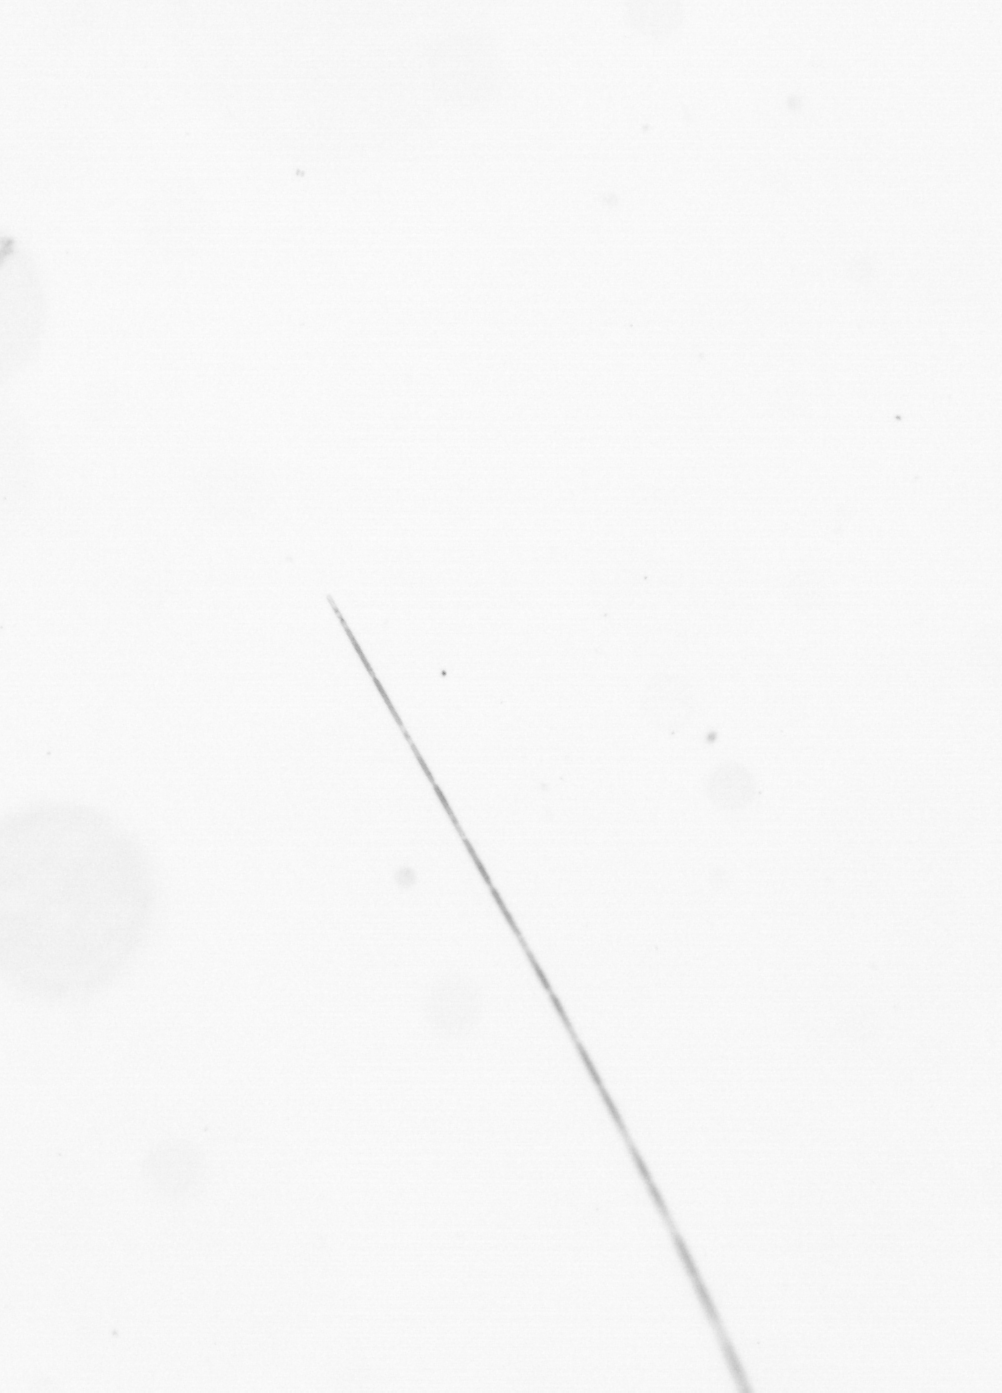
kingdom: Chromista
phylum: Ochrophyta
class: Bacillariophyceae
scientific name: Bacillariophyceae
